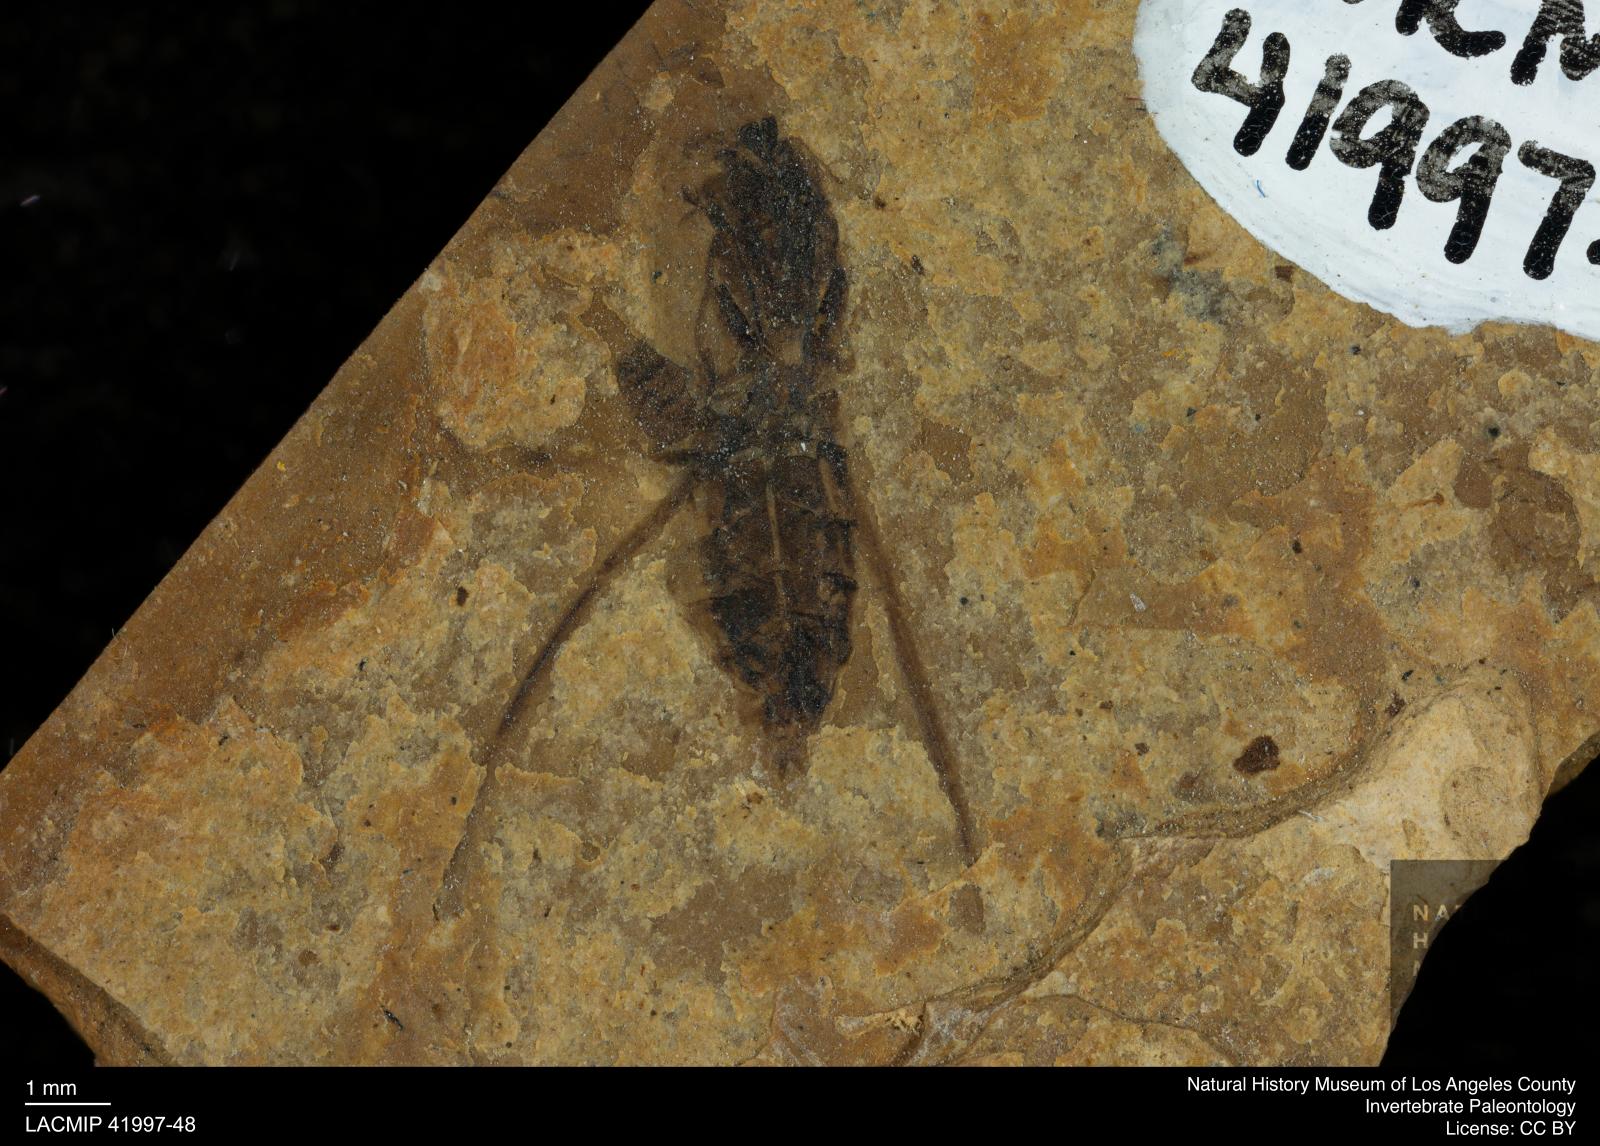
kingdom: Animalia
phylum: Arthropoda
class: Insecta
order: Hemiptera
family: Notonectidae
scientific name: Notonectidae
